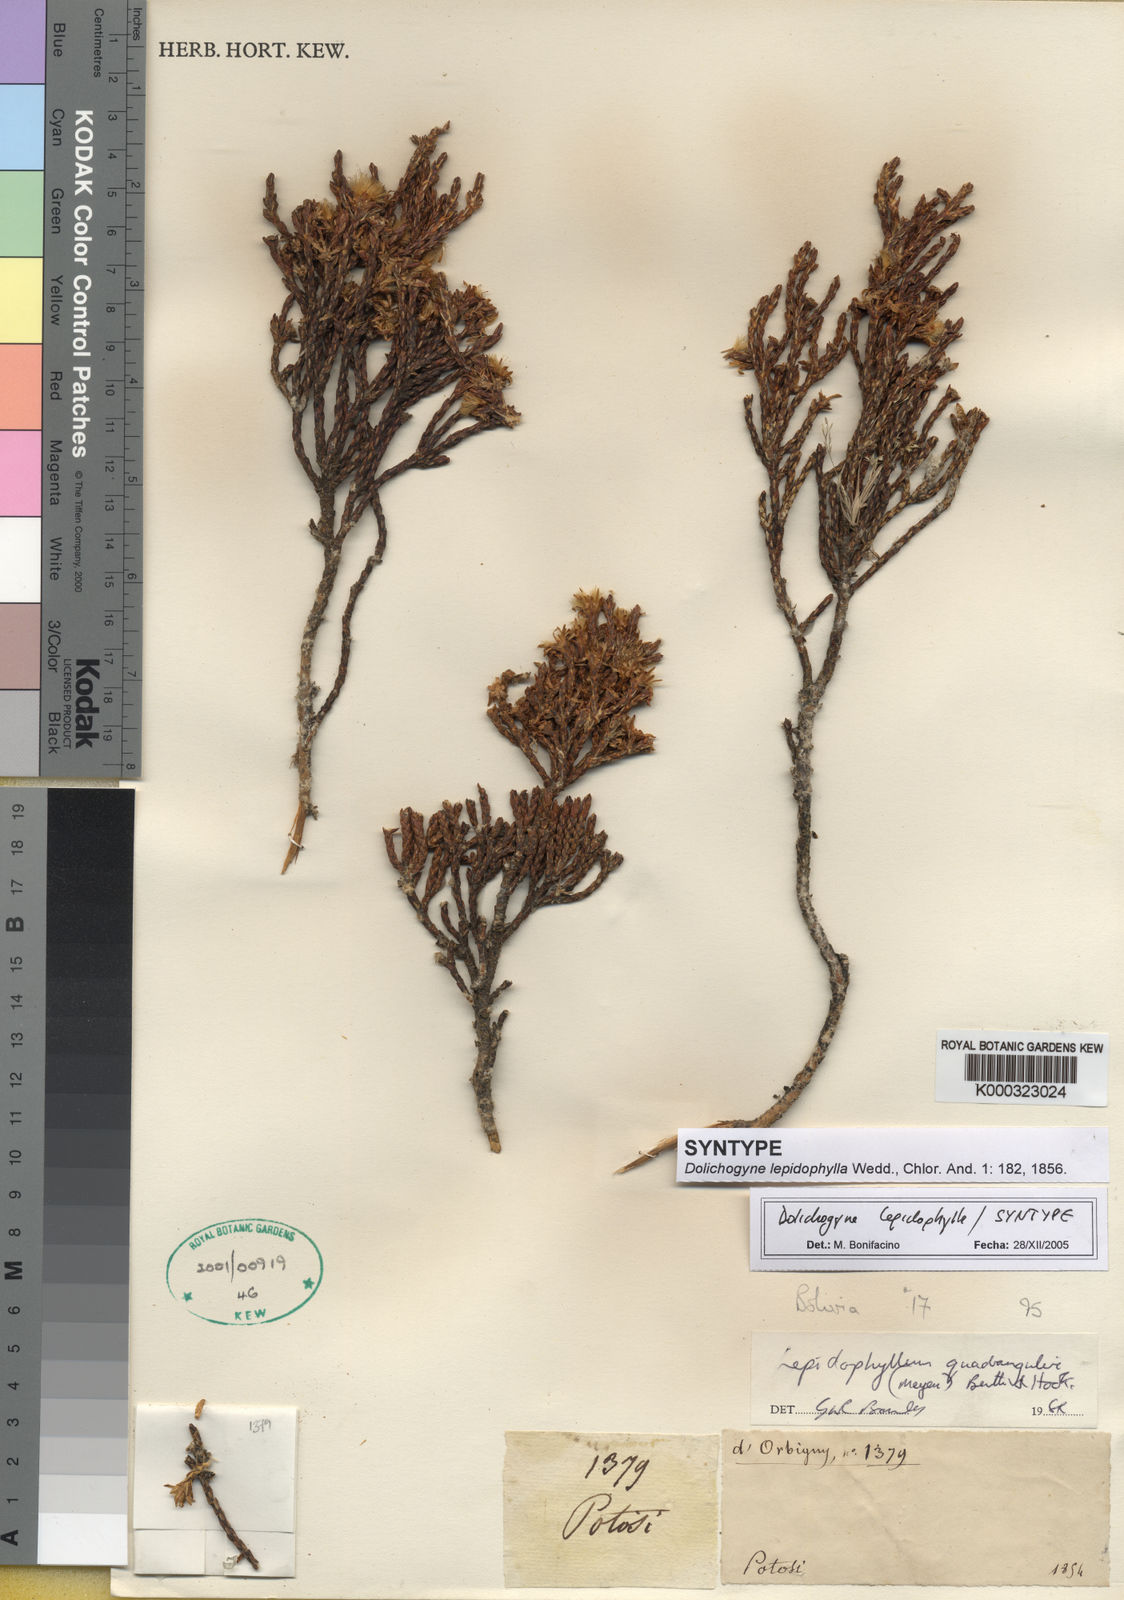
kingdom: Plantae
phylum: Tracheophyta
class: Magnoliopsida
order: Asterales
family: Asteraceae
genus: Parastrephia
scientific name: Parastrephia quadrangularis
